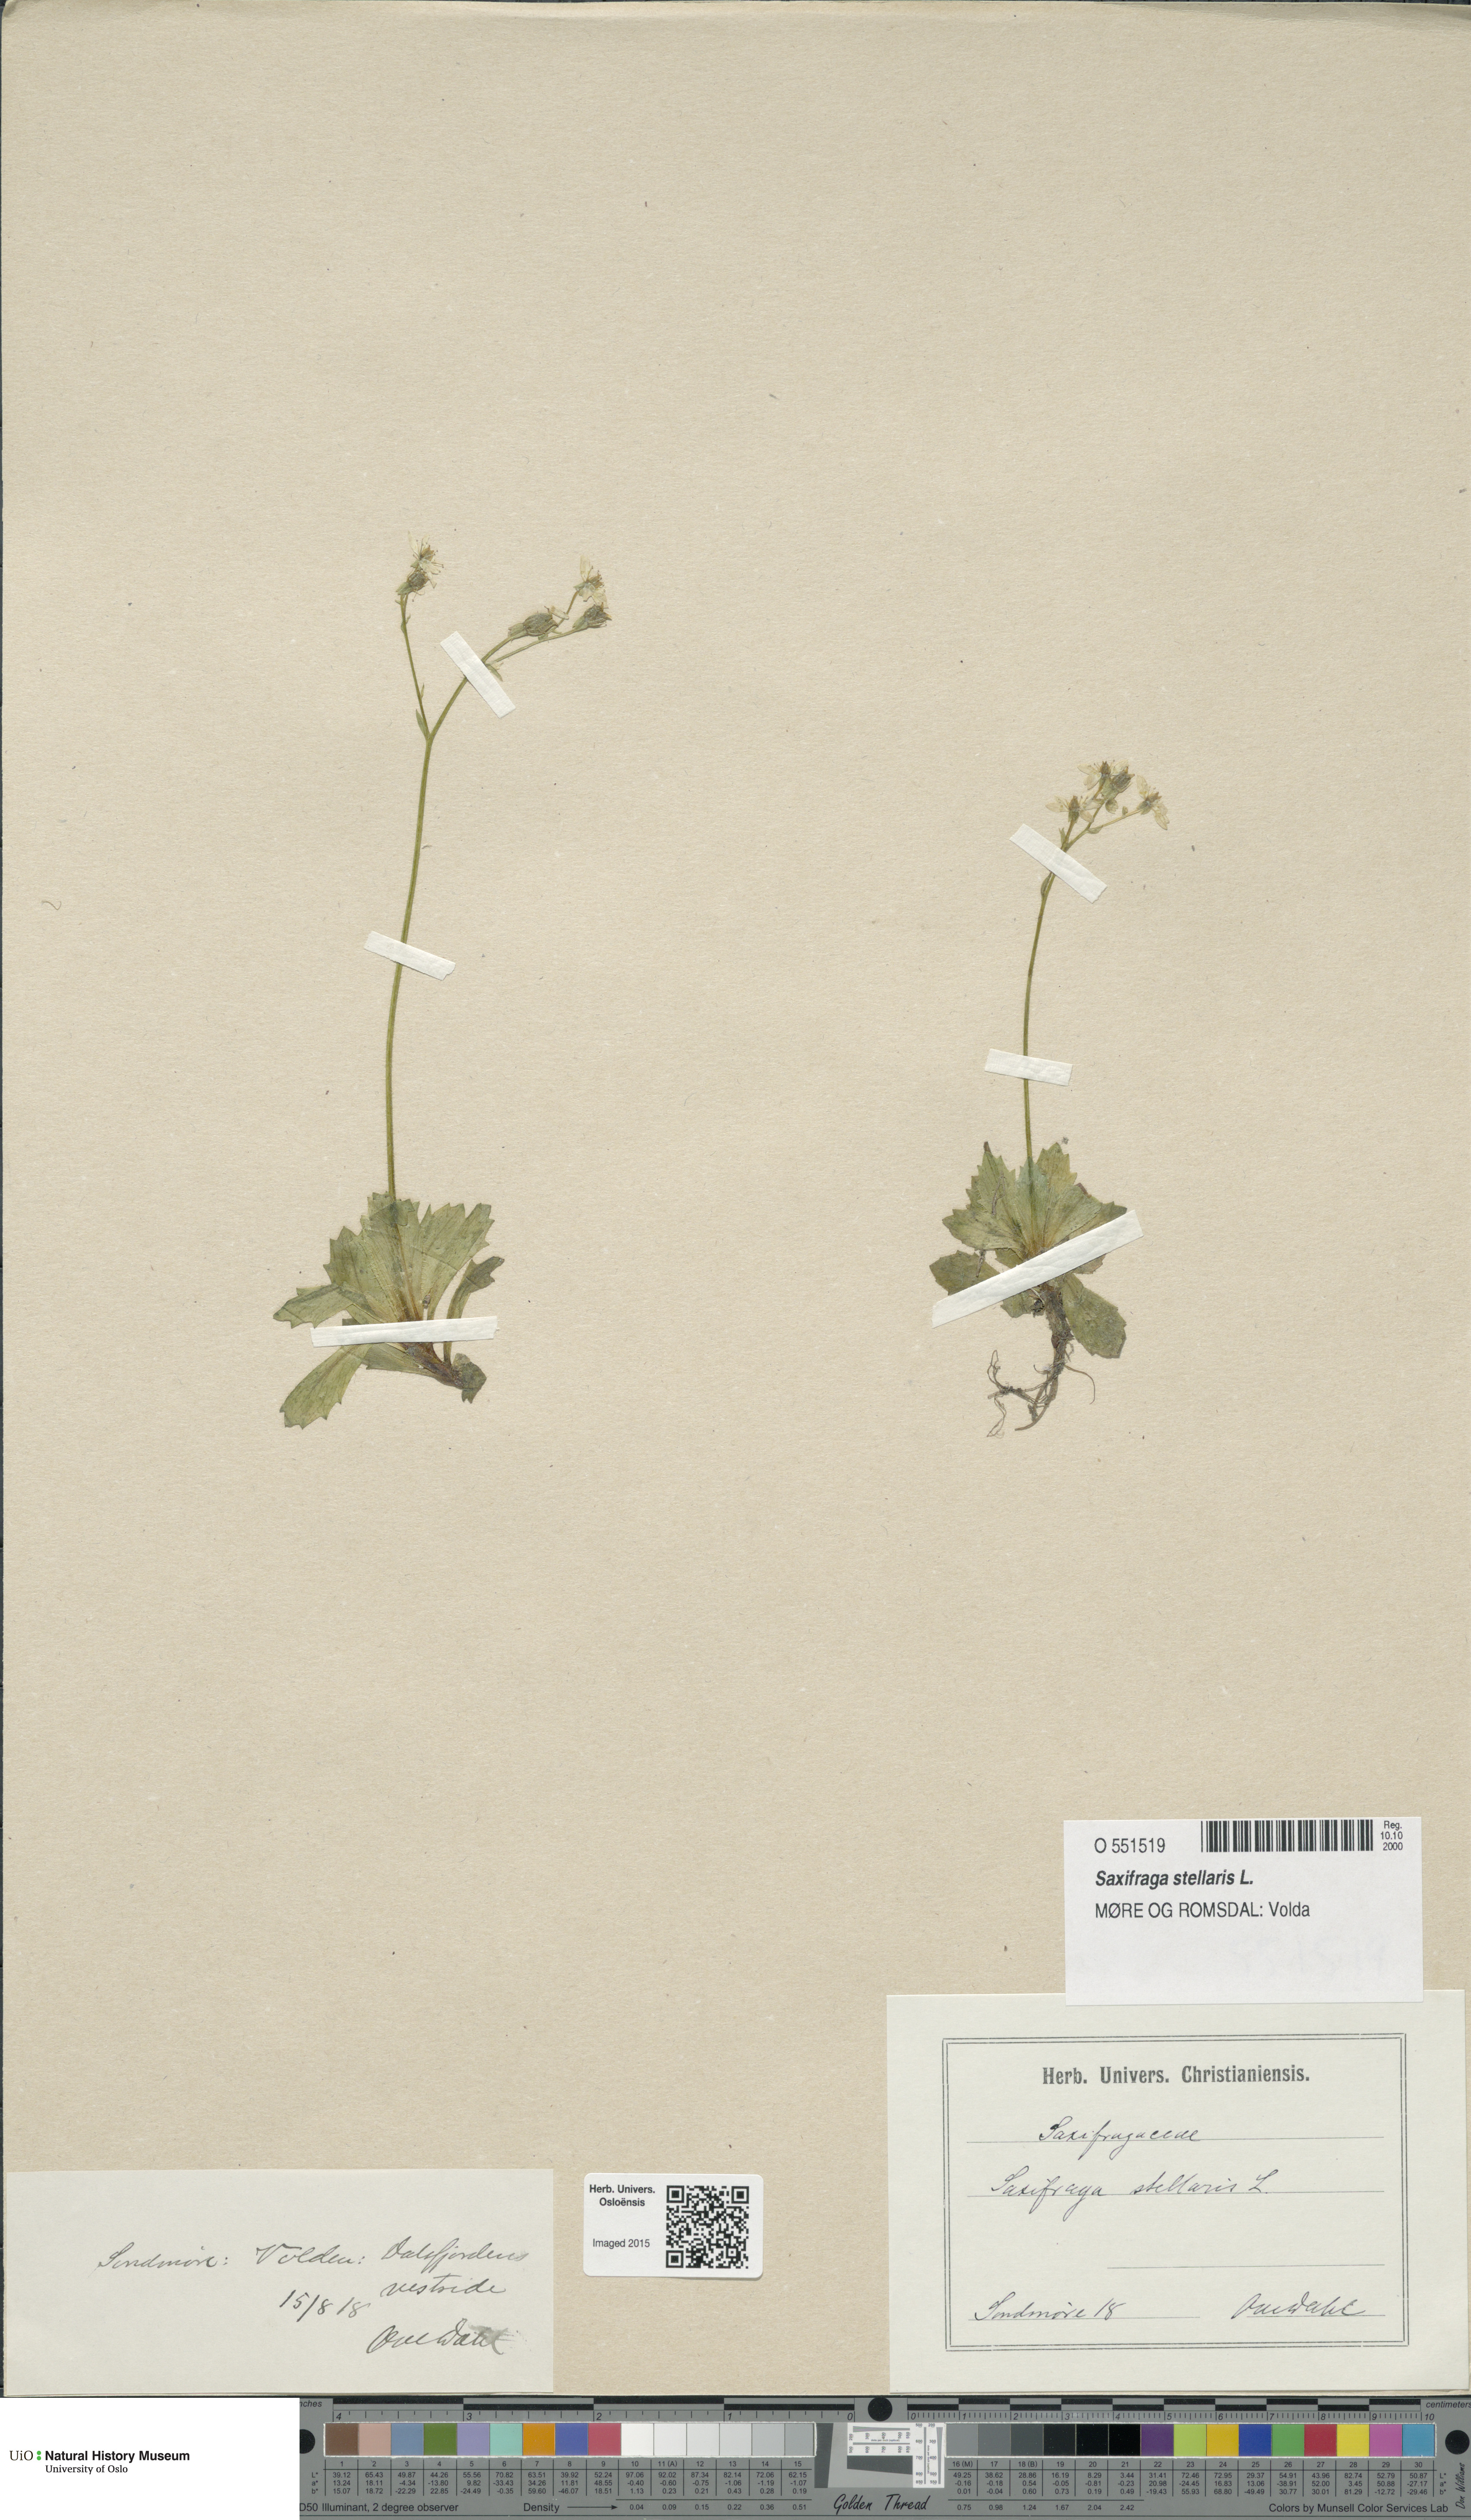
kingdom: Plantae
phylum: Tracheophyta
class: Magnoliopsida
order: Saxifragales
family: Saxifragaceae
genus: Micranthes
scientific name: Micranthes stellaris
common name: Starry saxifrage
